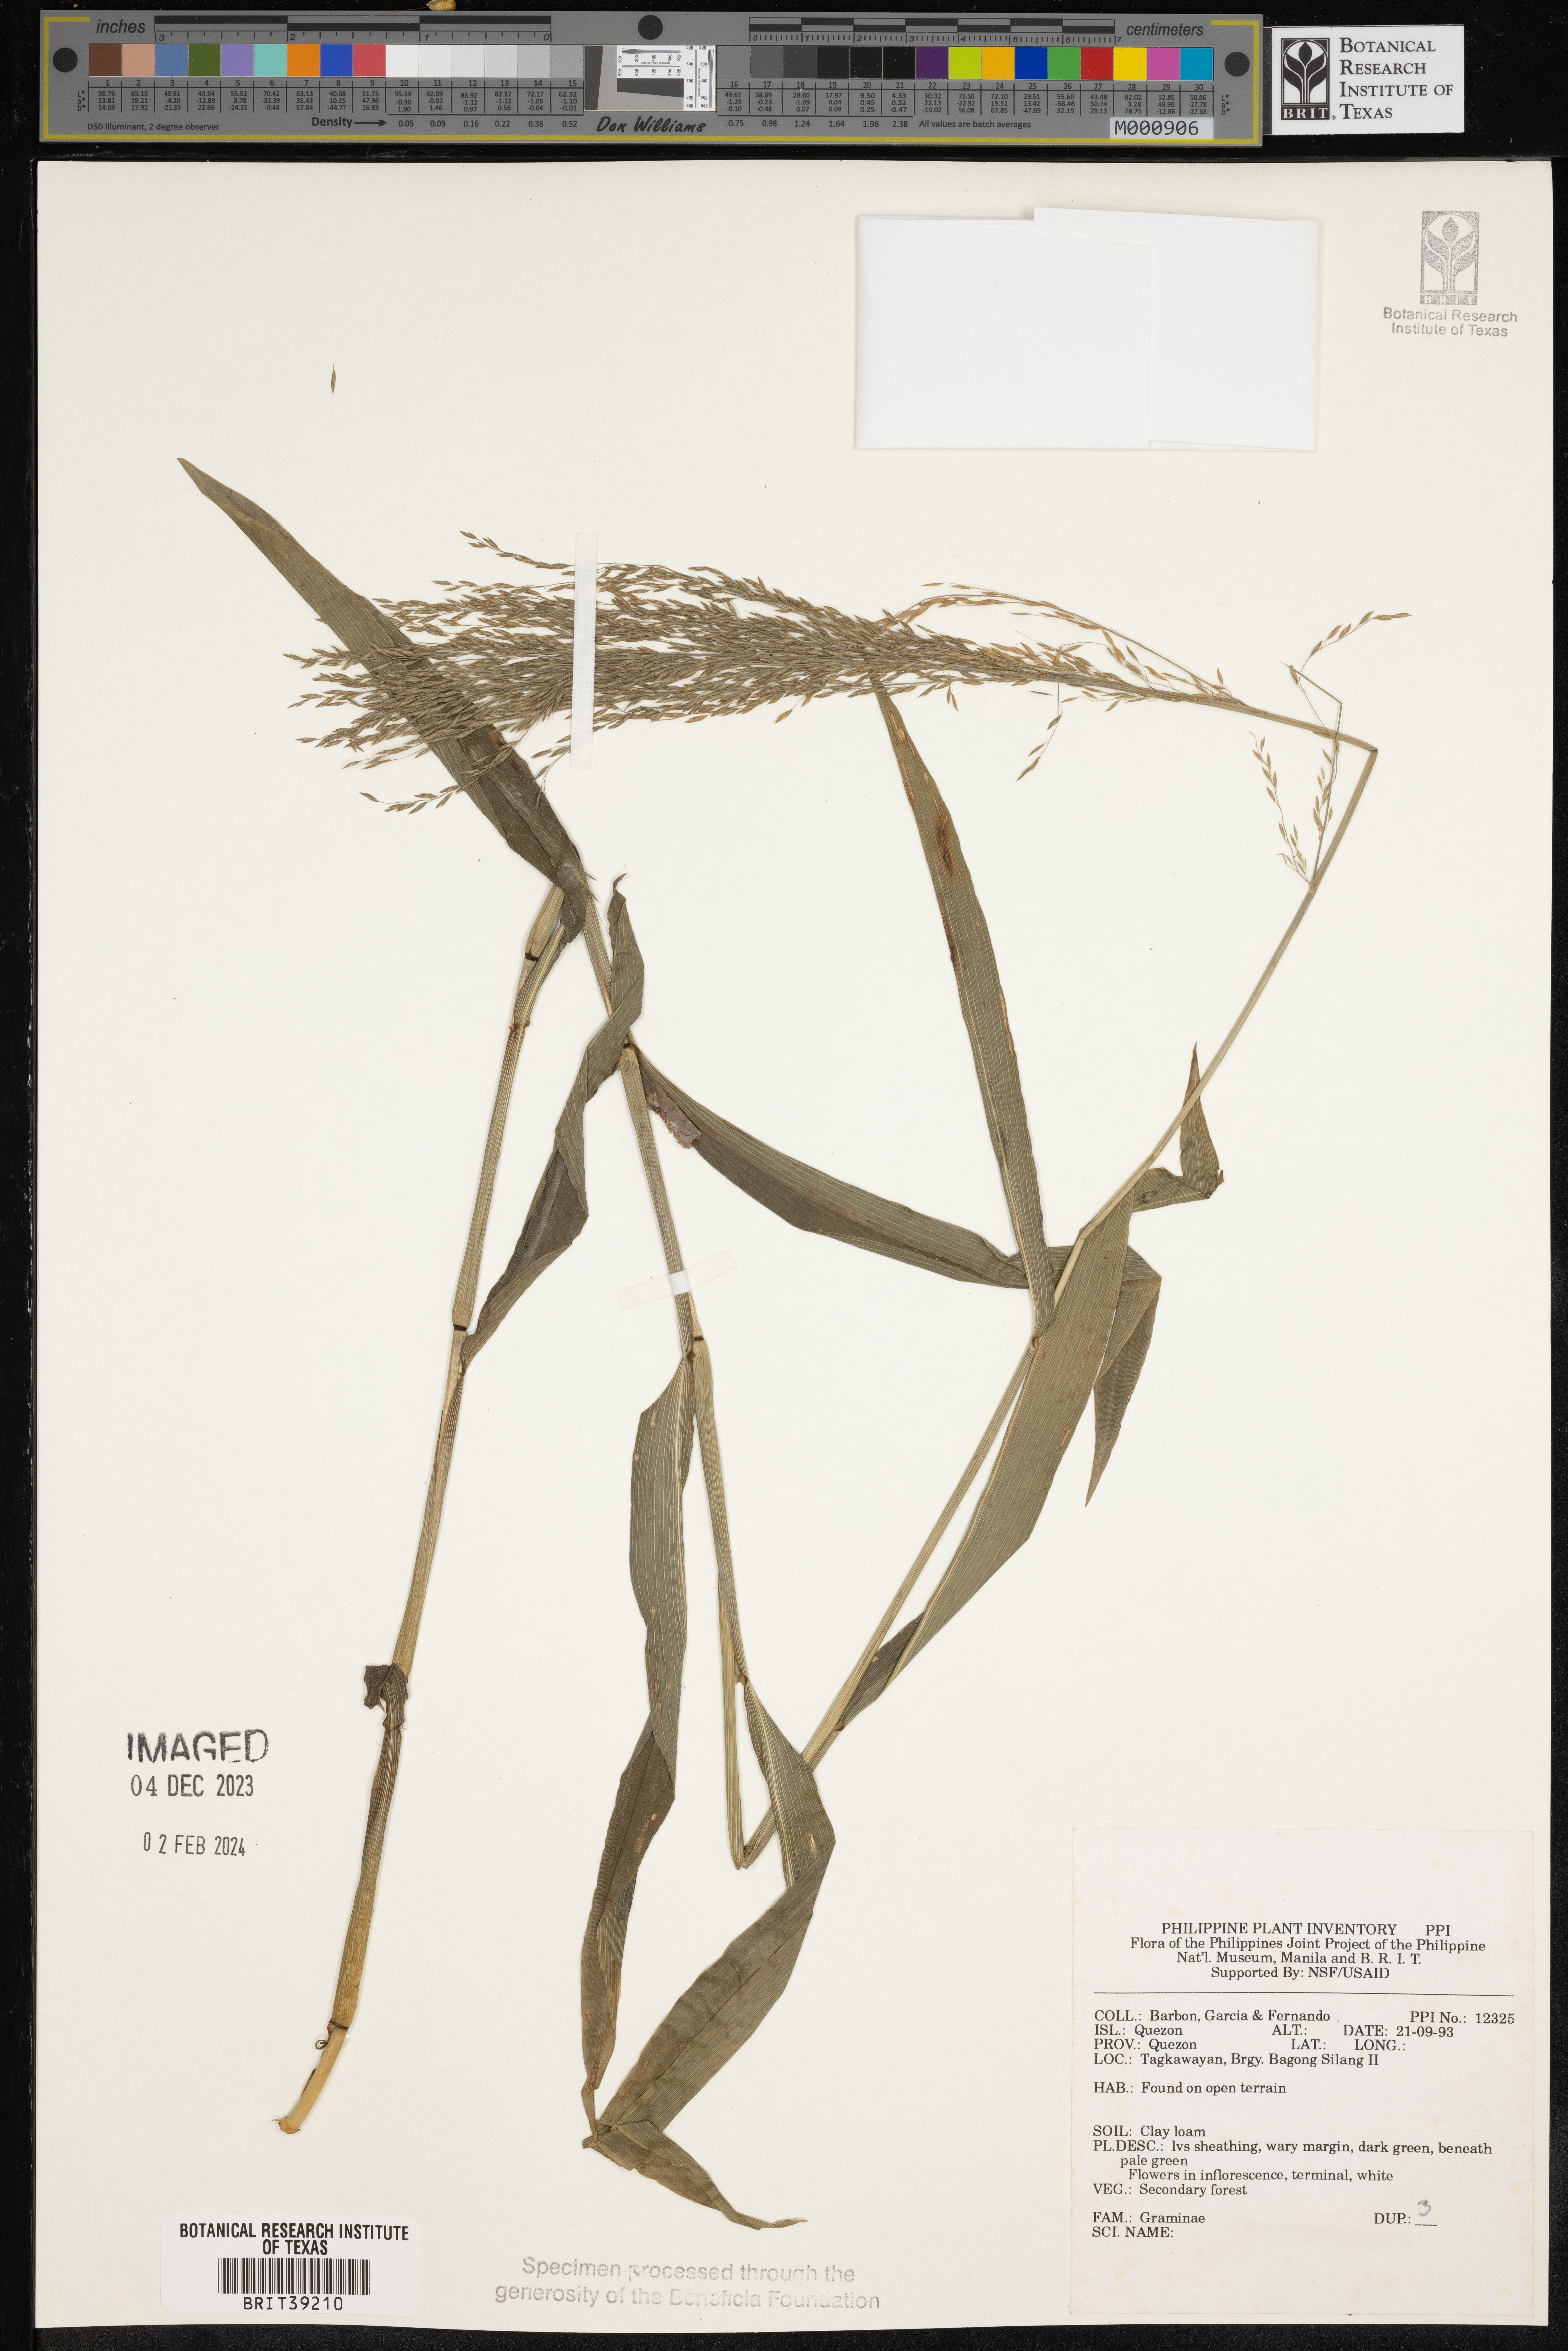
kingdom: Plantae
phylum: Tracheophyta
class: Liliopsida
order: Poales
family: Poaceae
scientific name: Poaceae
